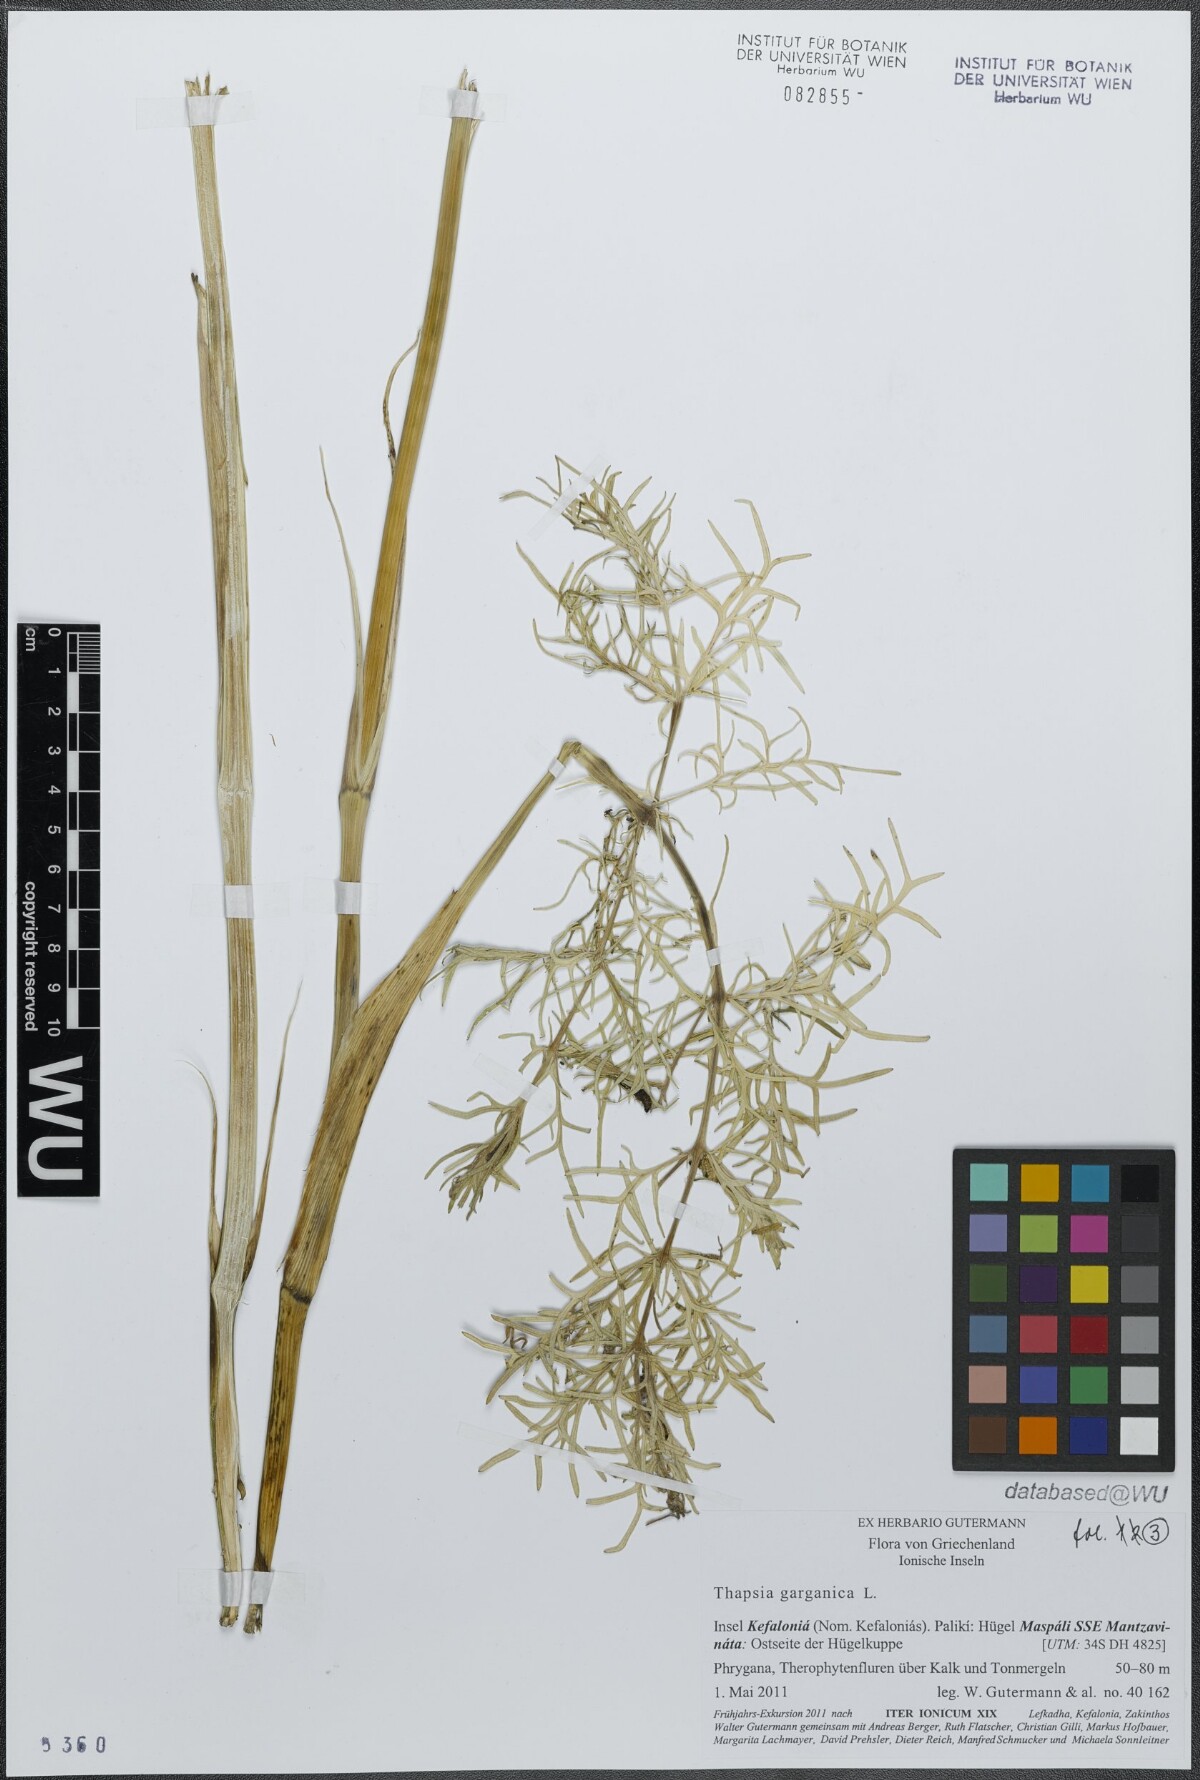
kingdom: Plantae
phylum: Tracheophyta
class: Magnoliopsida
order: Apiales
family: Apiaceae
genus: Thapsia
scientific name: Thapsia garganica
